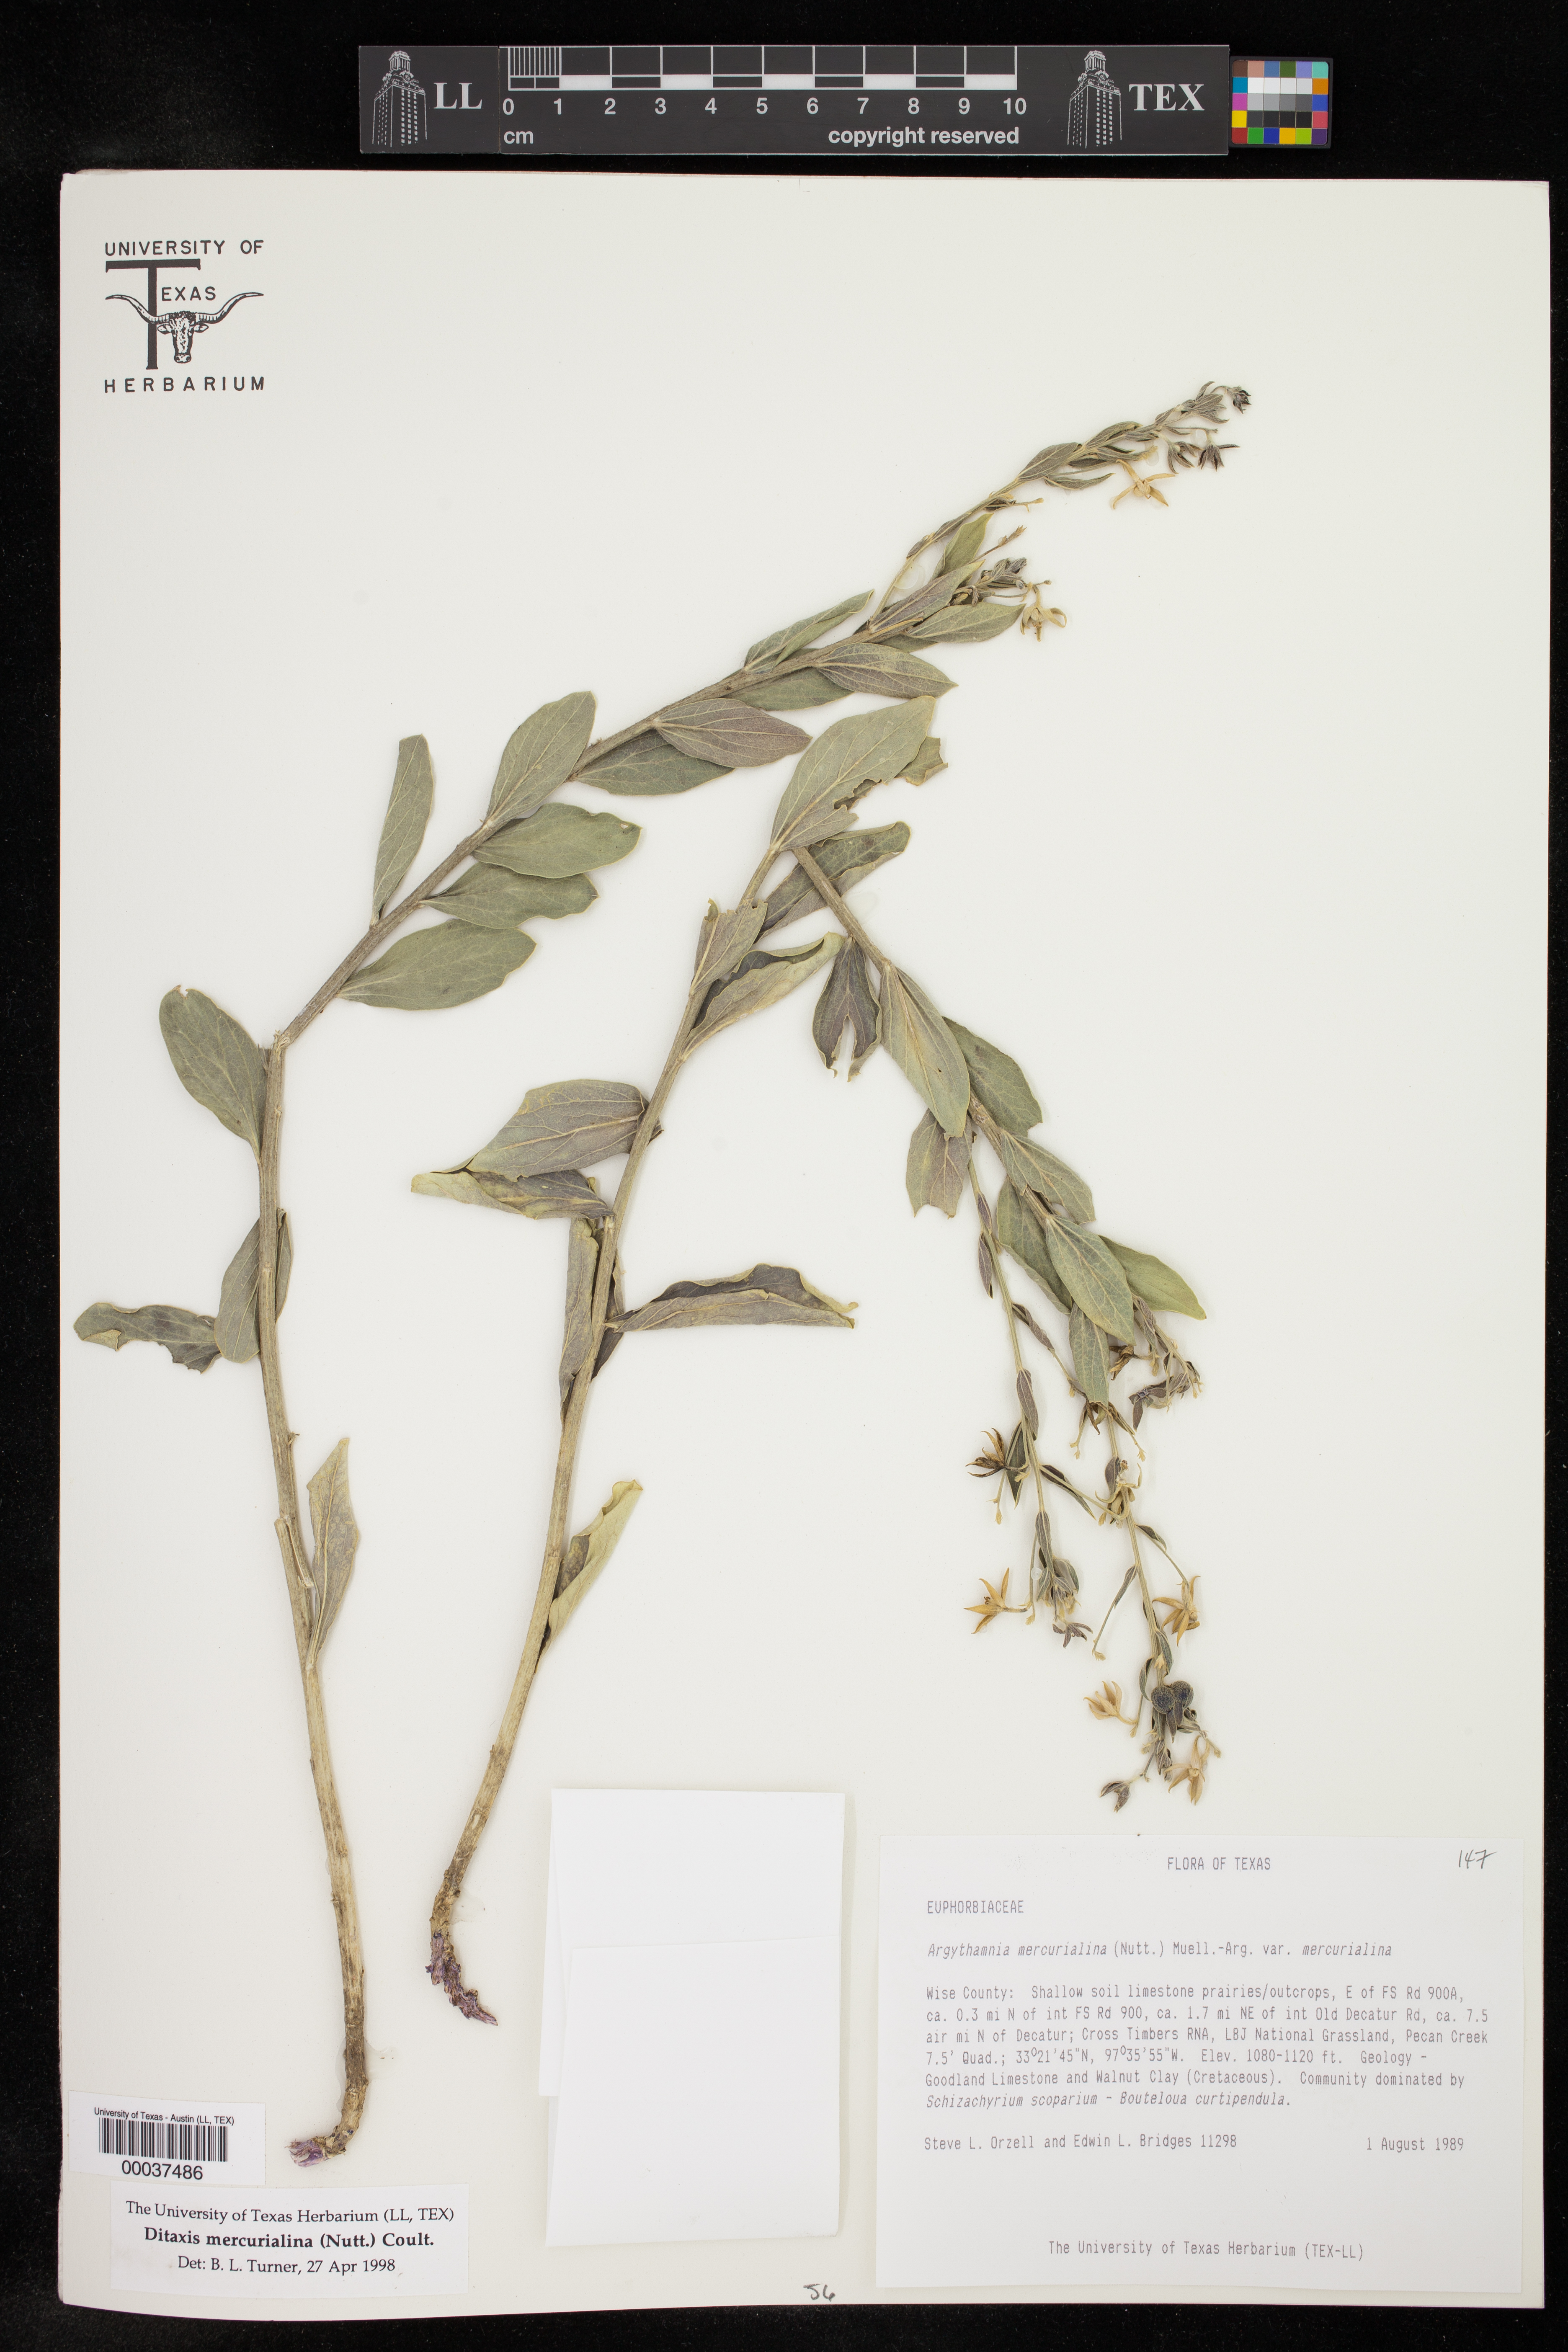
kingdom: Plantae
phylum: Tracheophyta
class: Magnoliopsida
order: Malpighiales
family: Euphorbiaceae
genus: Ditaxis
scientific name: Ditaxis mercurialina
